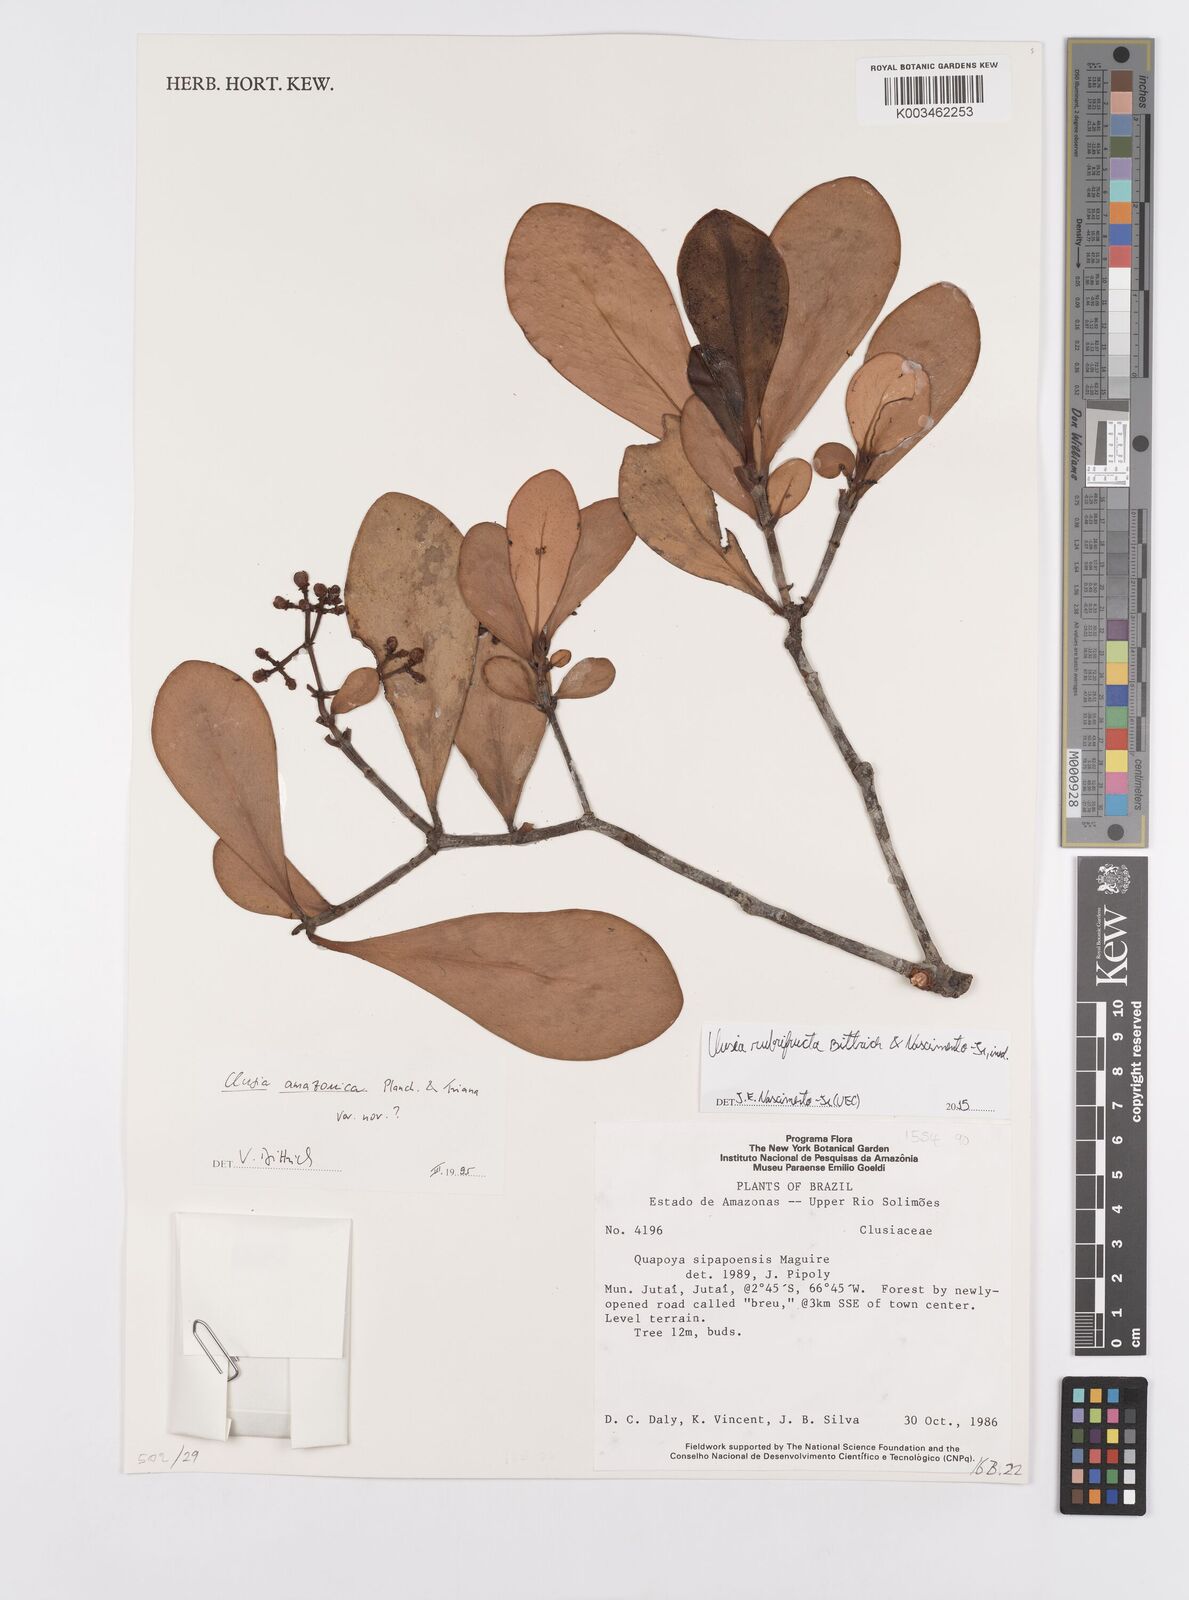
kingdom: Plantae
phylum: Tracheophyta
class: Magnoliopsida
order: Malpighiales
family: Clusiaceae
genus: Clusia
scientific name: Clusia rubrifructa
